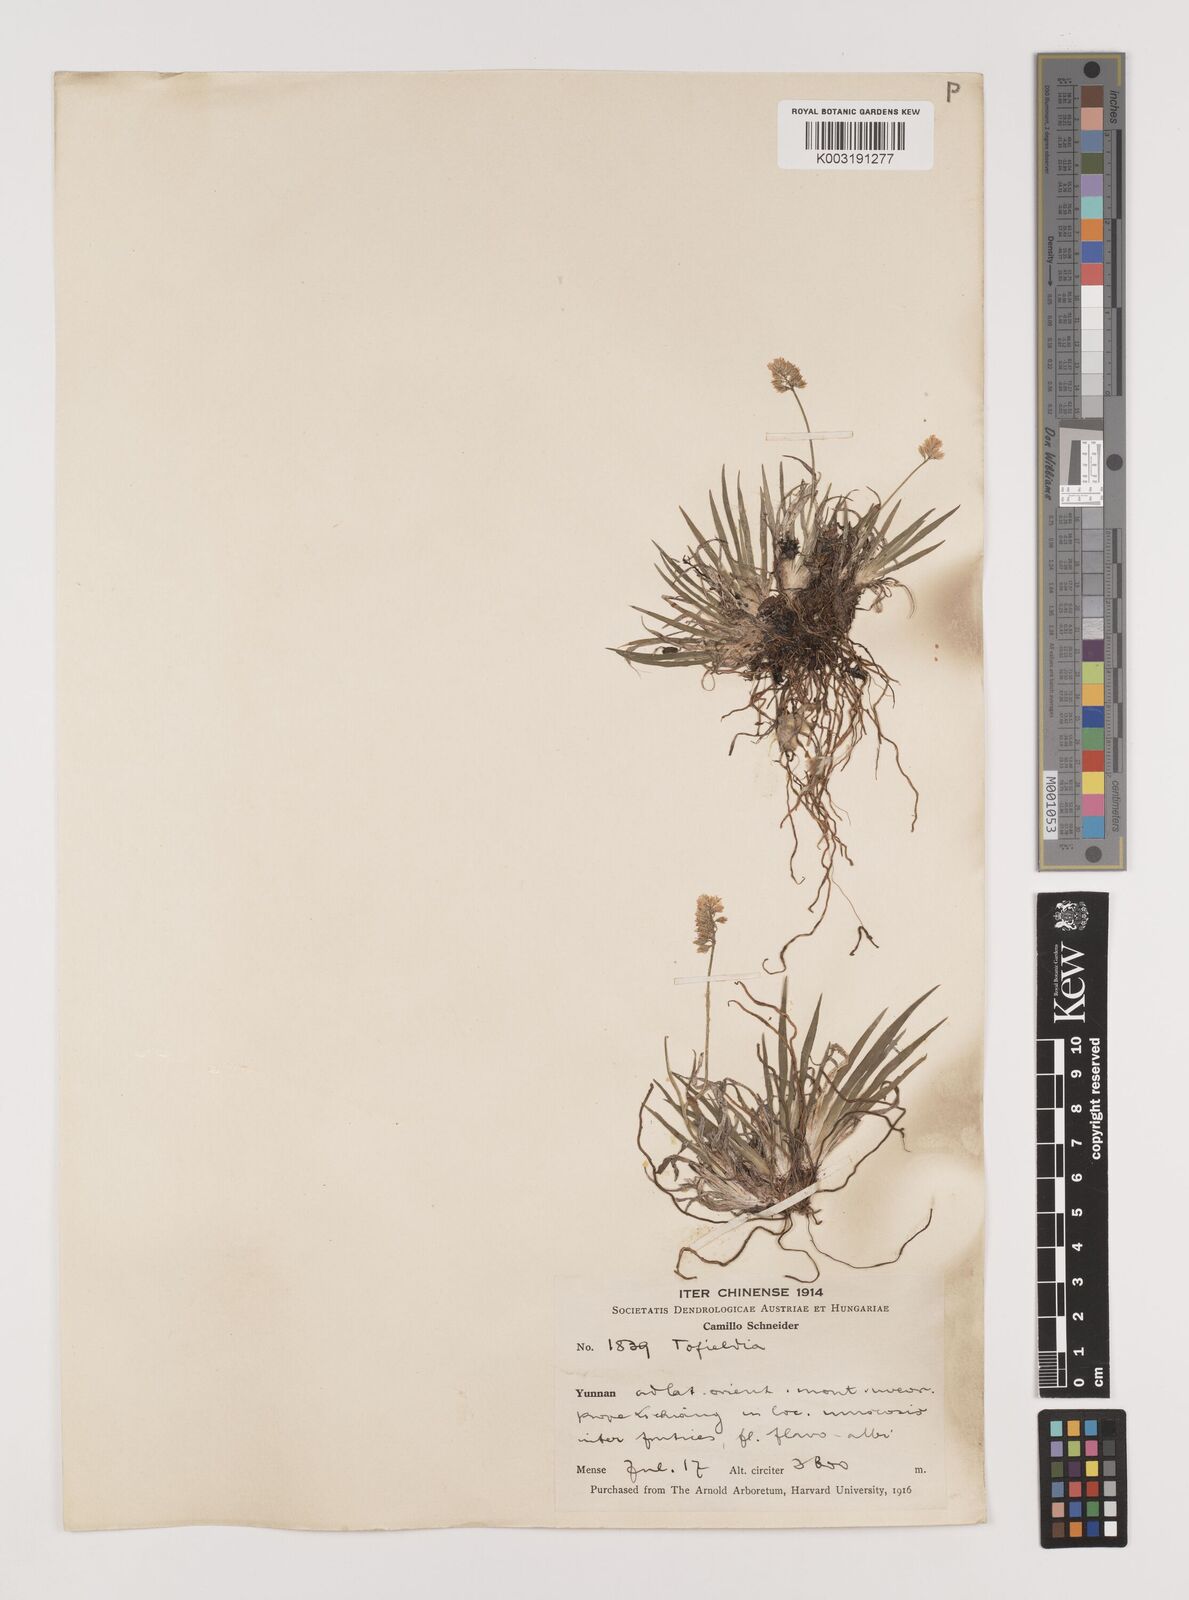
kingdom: Plantae
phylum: Tracheophyta
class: Liliopsida
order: Alismatales
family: Tofieldiaceae
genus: Tofieldia
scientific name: Tofieldia divergens
